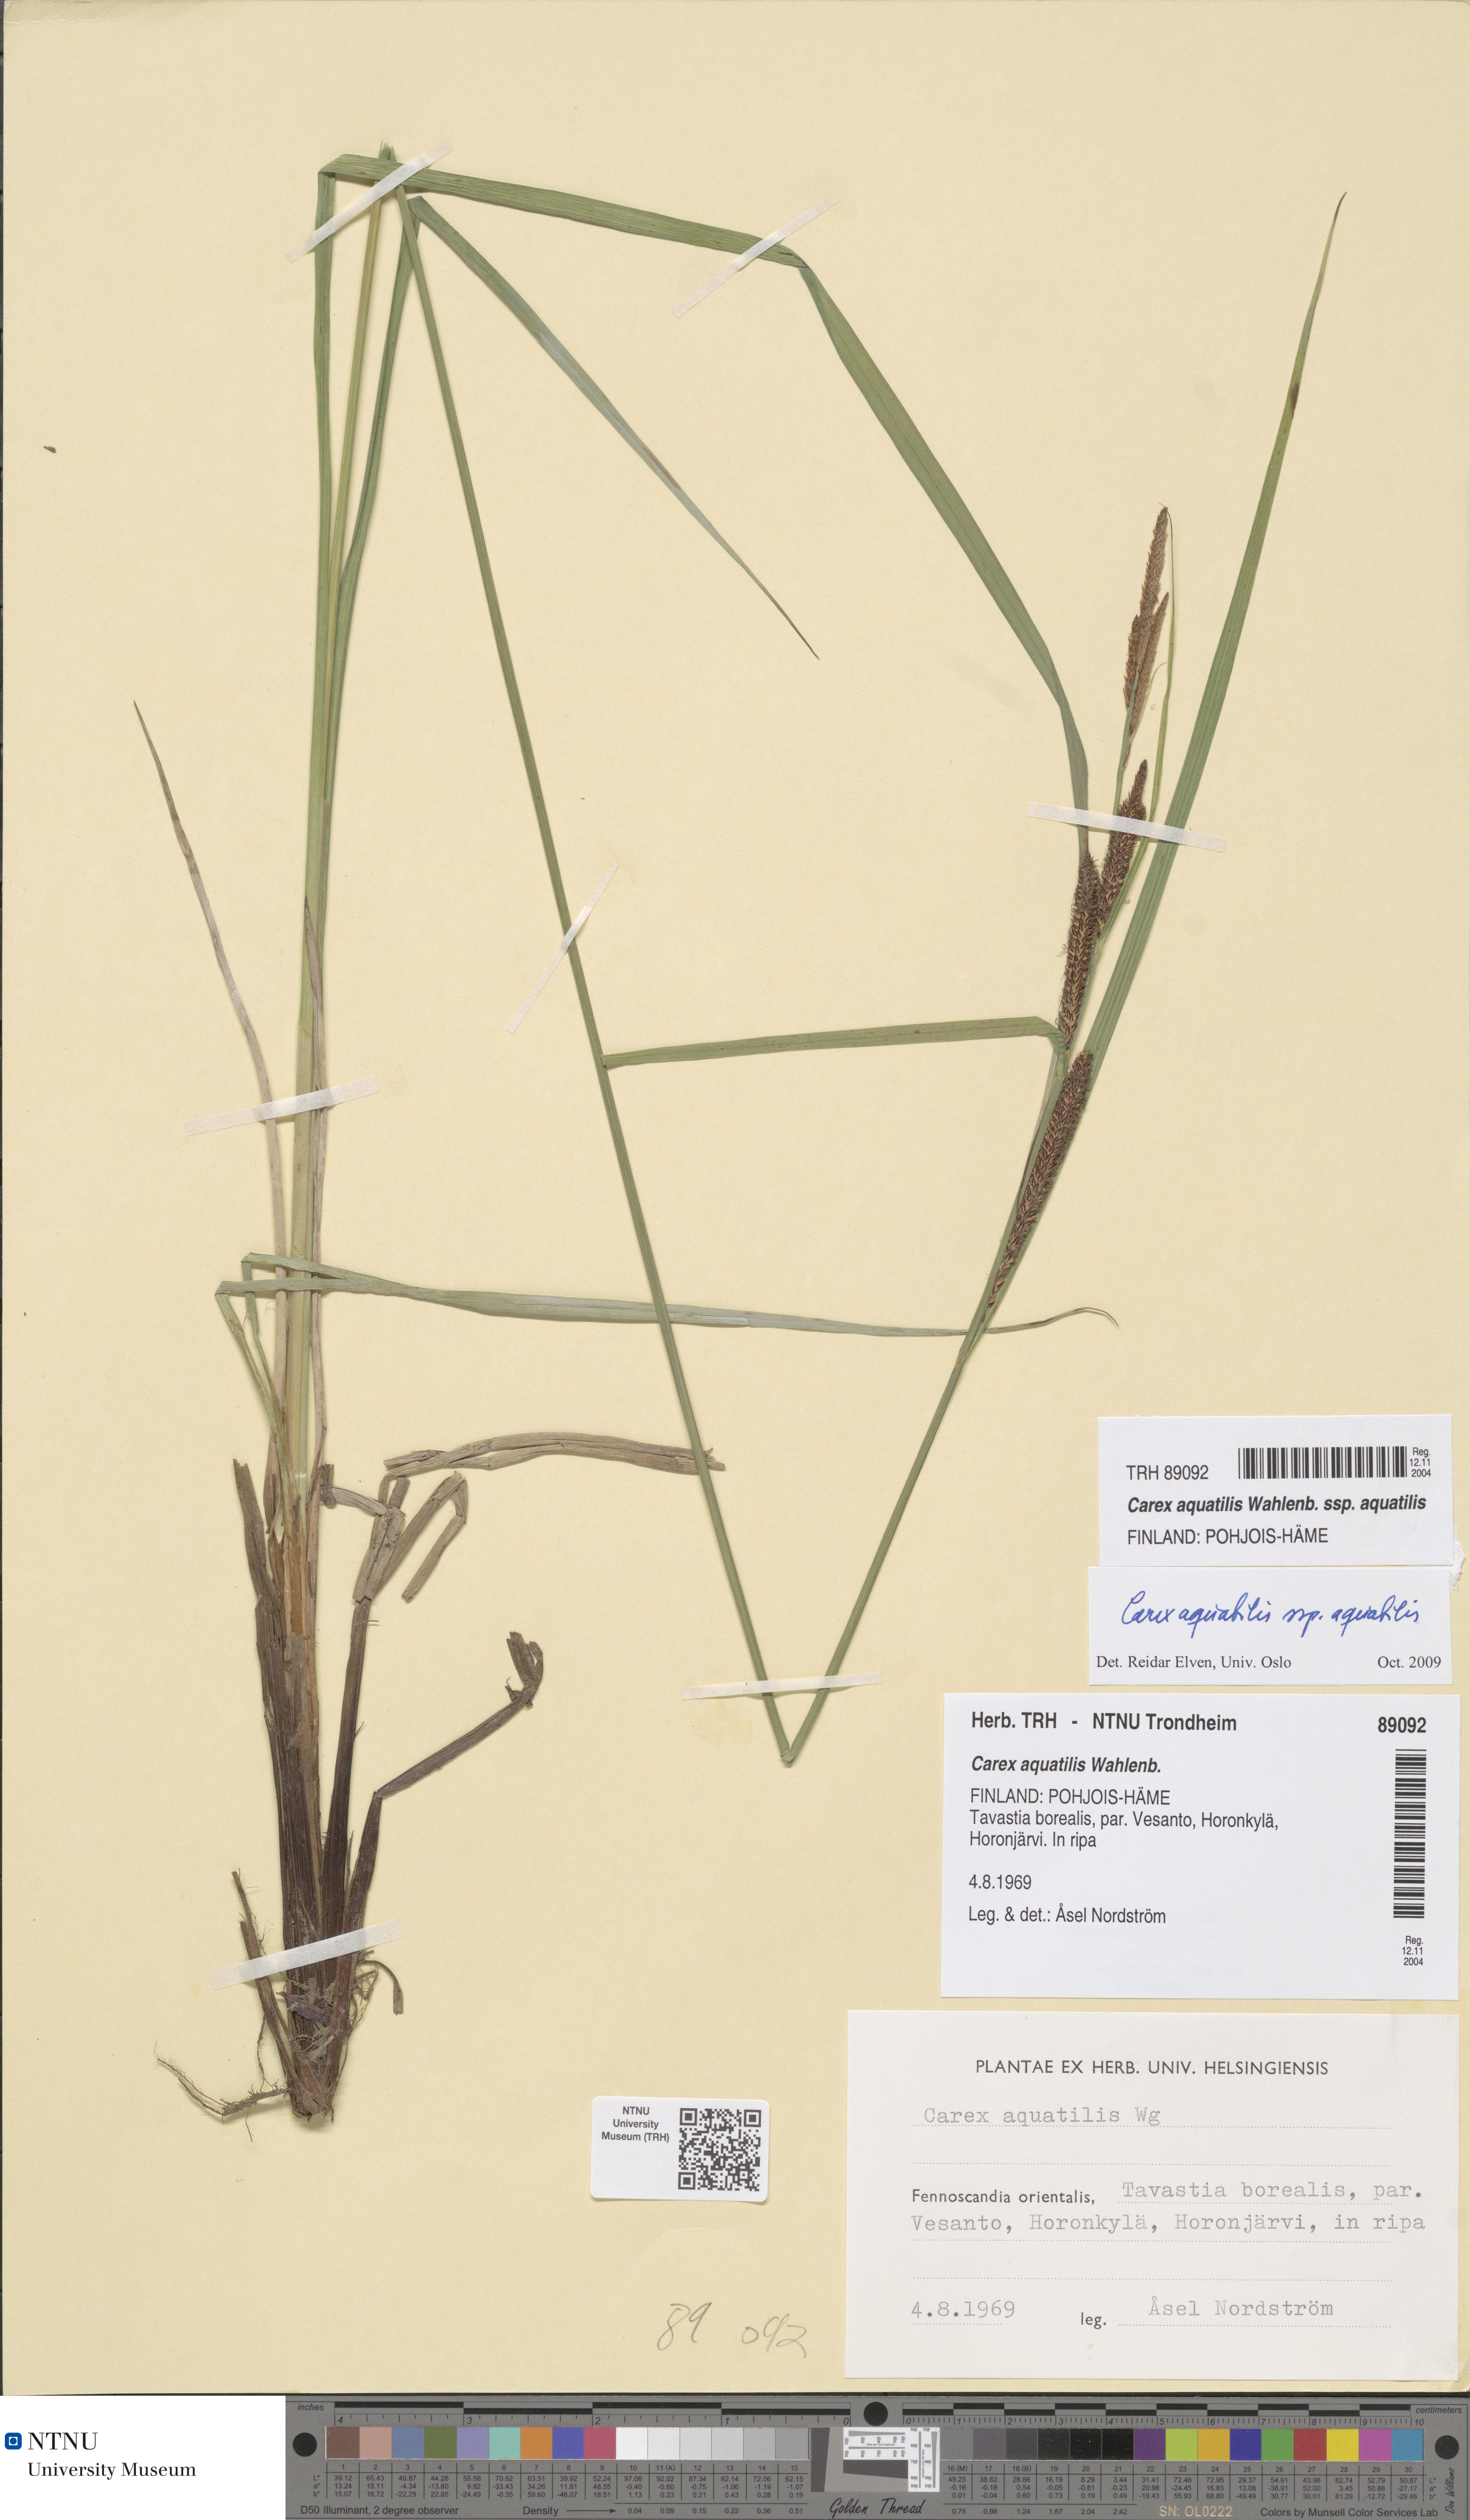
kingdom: Plantae
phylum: Tracheophyta
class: Liliopsida
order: Poales
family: Cyperaceae
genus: Carex
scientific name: Carex aquatilis
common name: Water sedge
